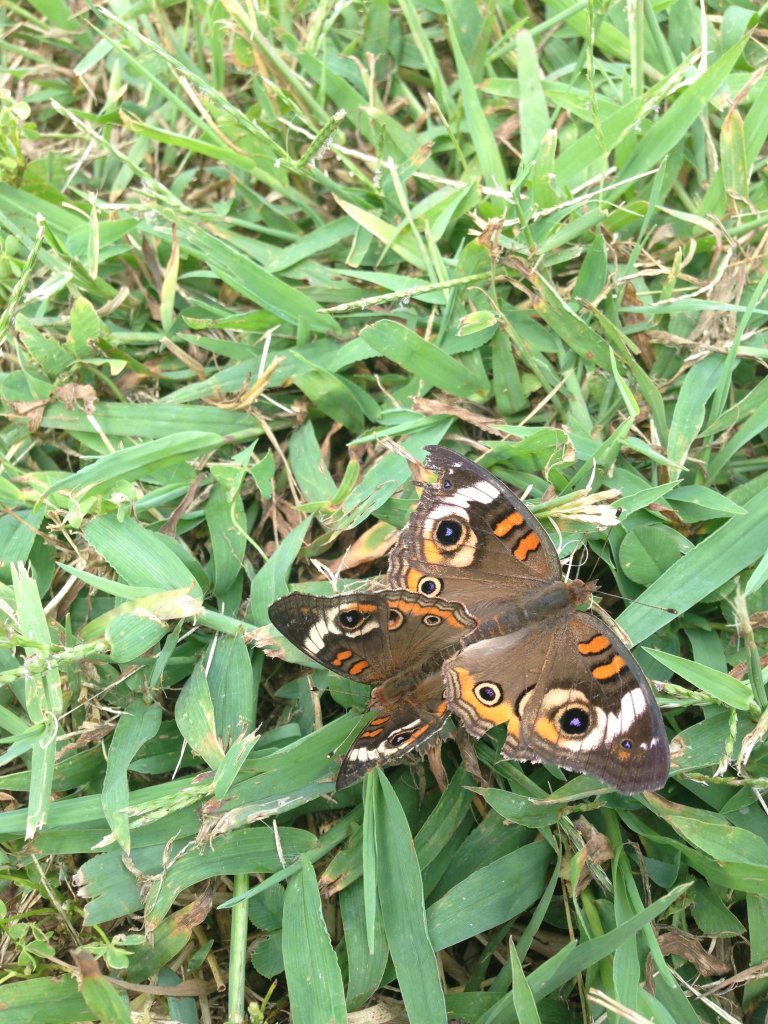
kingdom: Animalia
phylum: Arthropoda
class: Insecta
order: Lepidoptera
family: Nymphalidae
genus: Junonia
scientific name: Junonia coenia
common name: Common Buckeye
